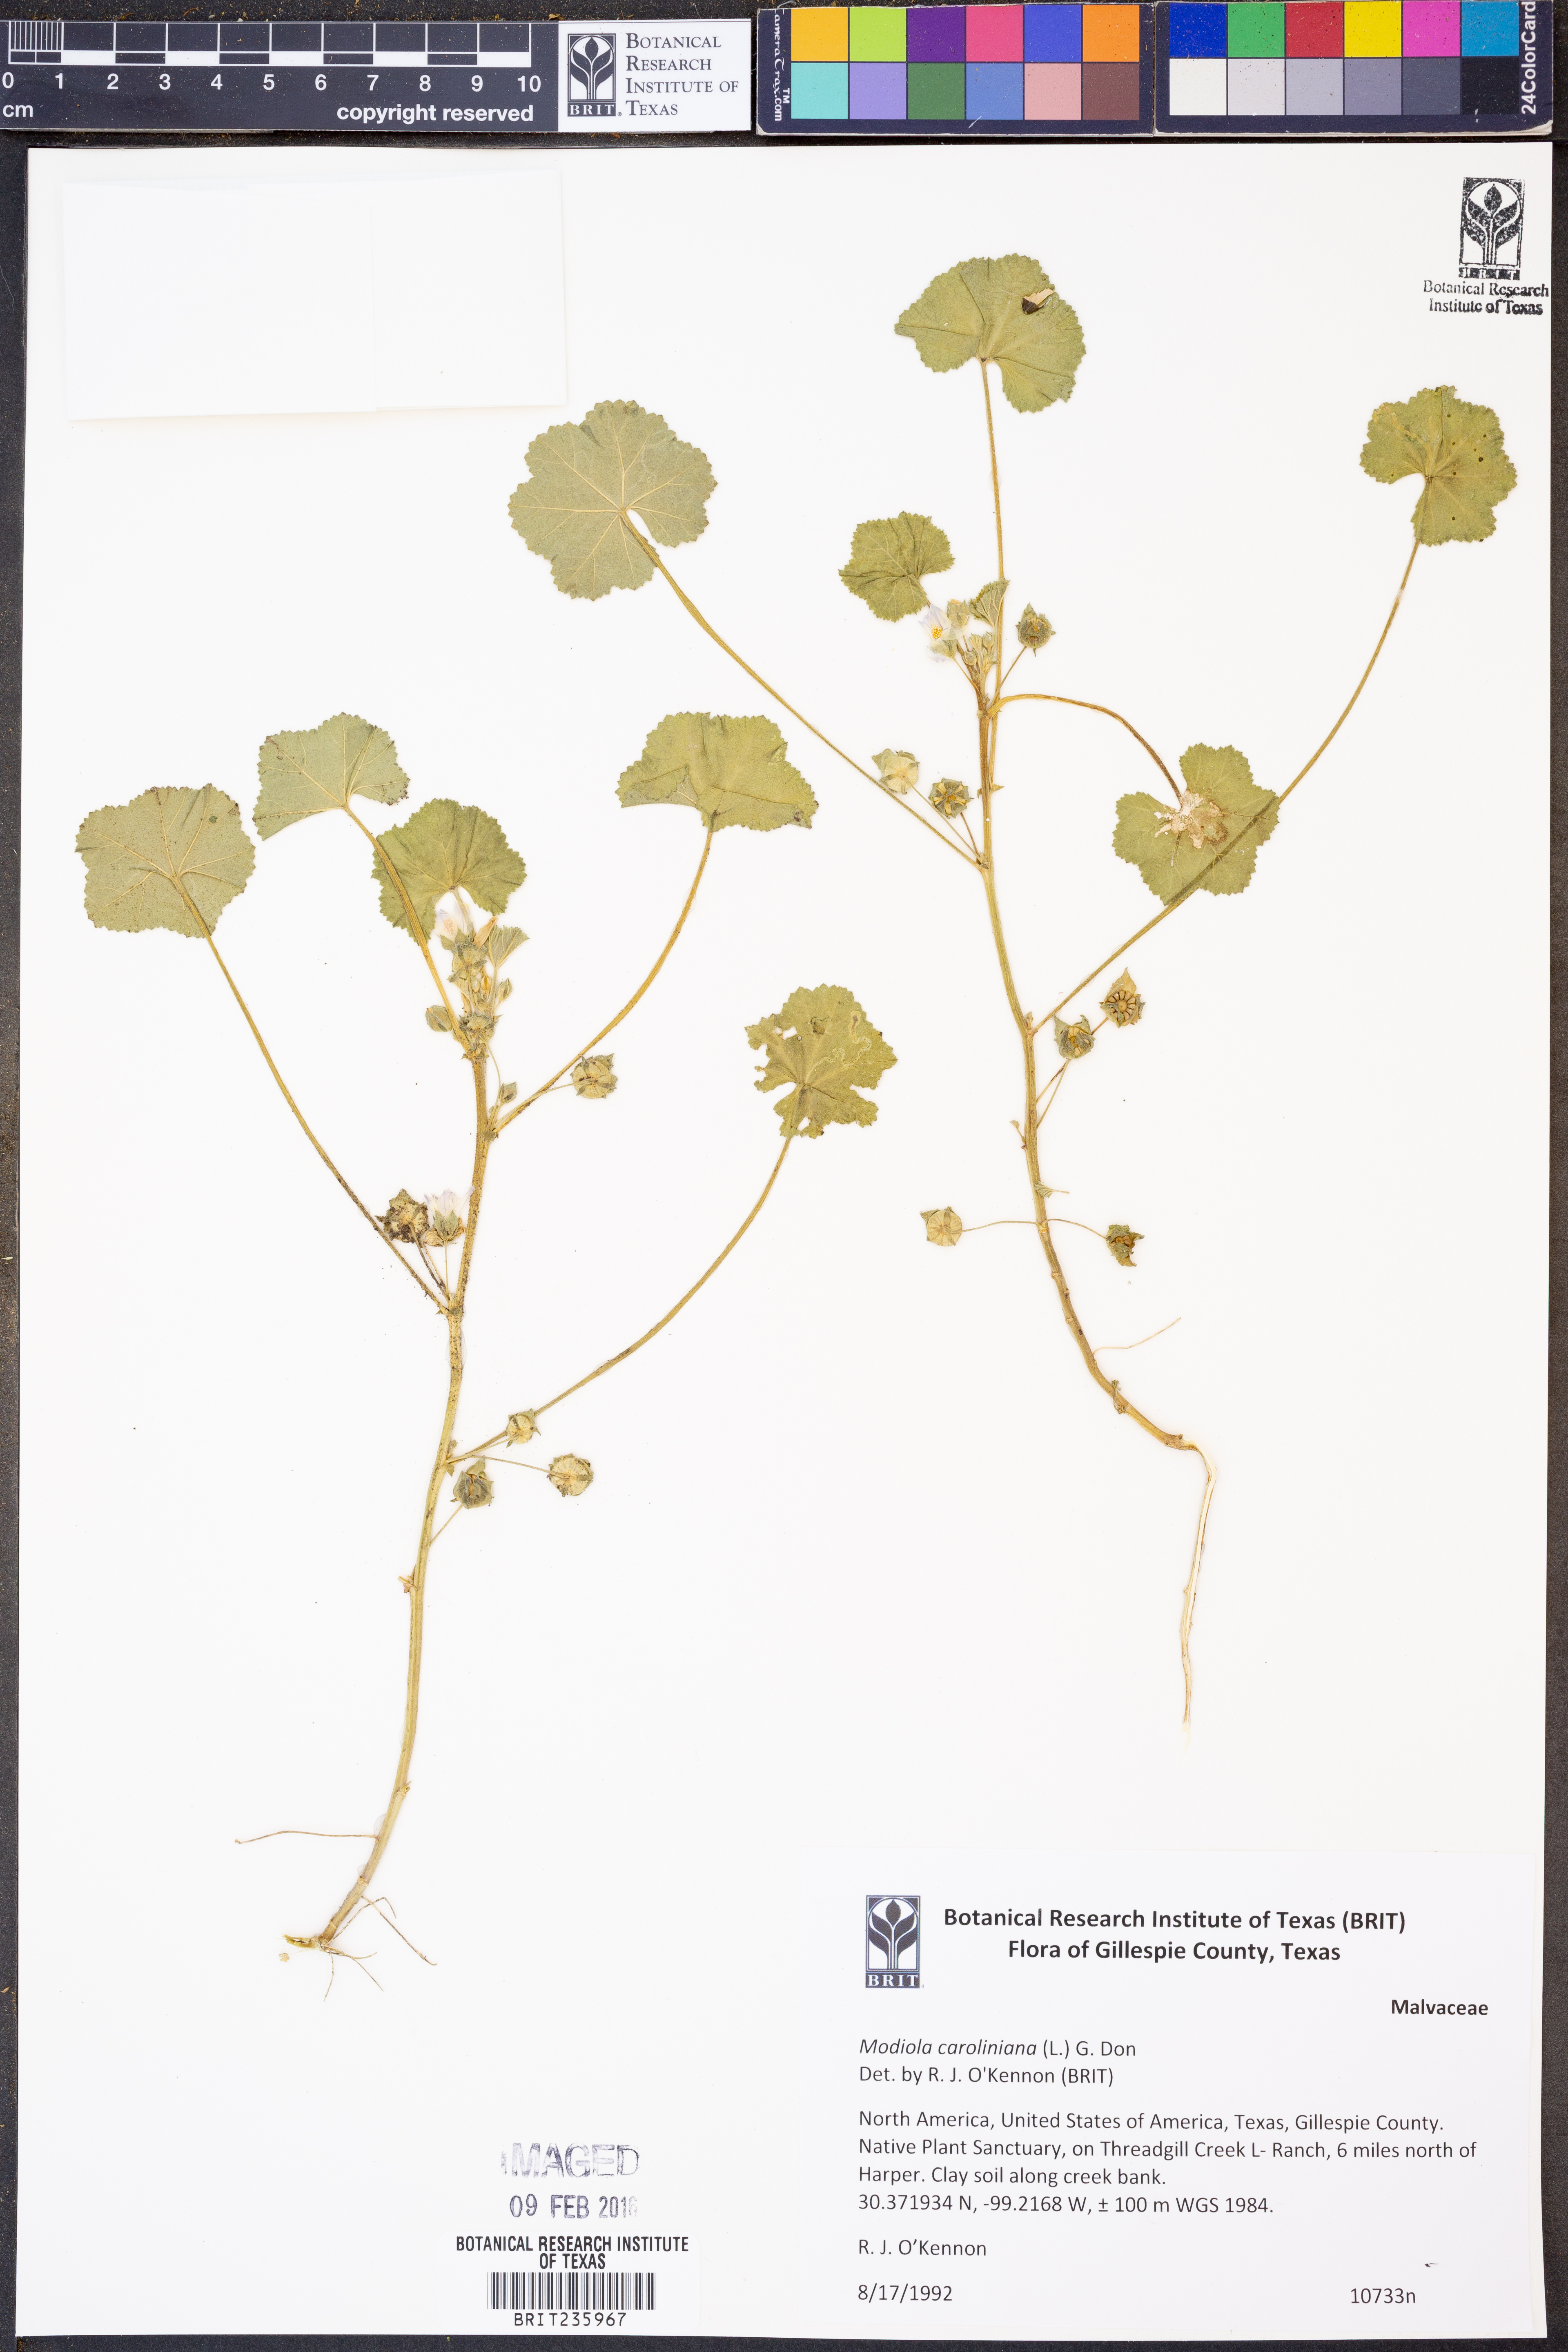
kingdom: Plantae
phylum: Tracheophyta
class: Magnoliopsida
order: Malvales
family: Malvaceae
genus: Modiola
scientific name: Modiola caroliniana
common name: Carolina bristlemallow
